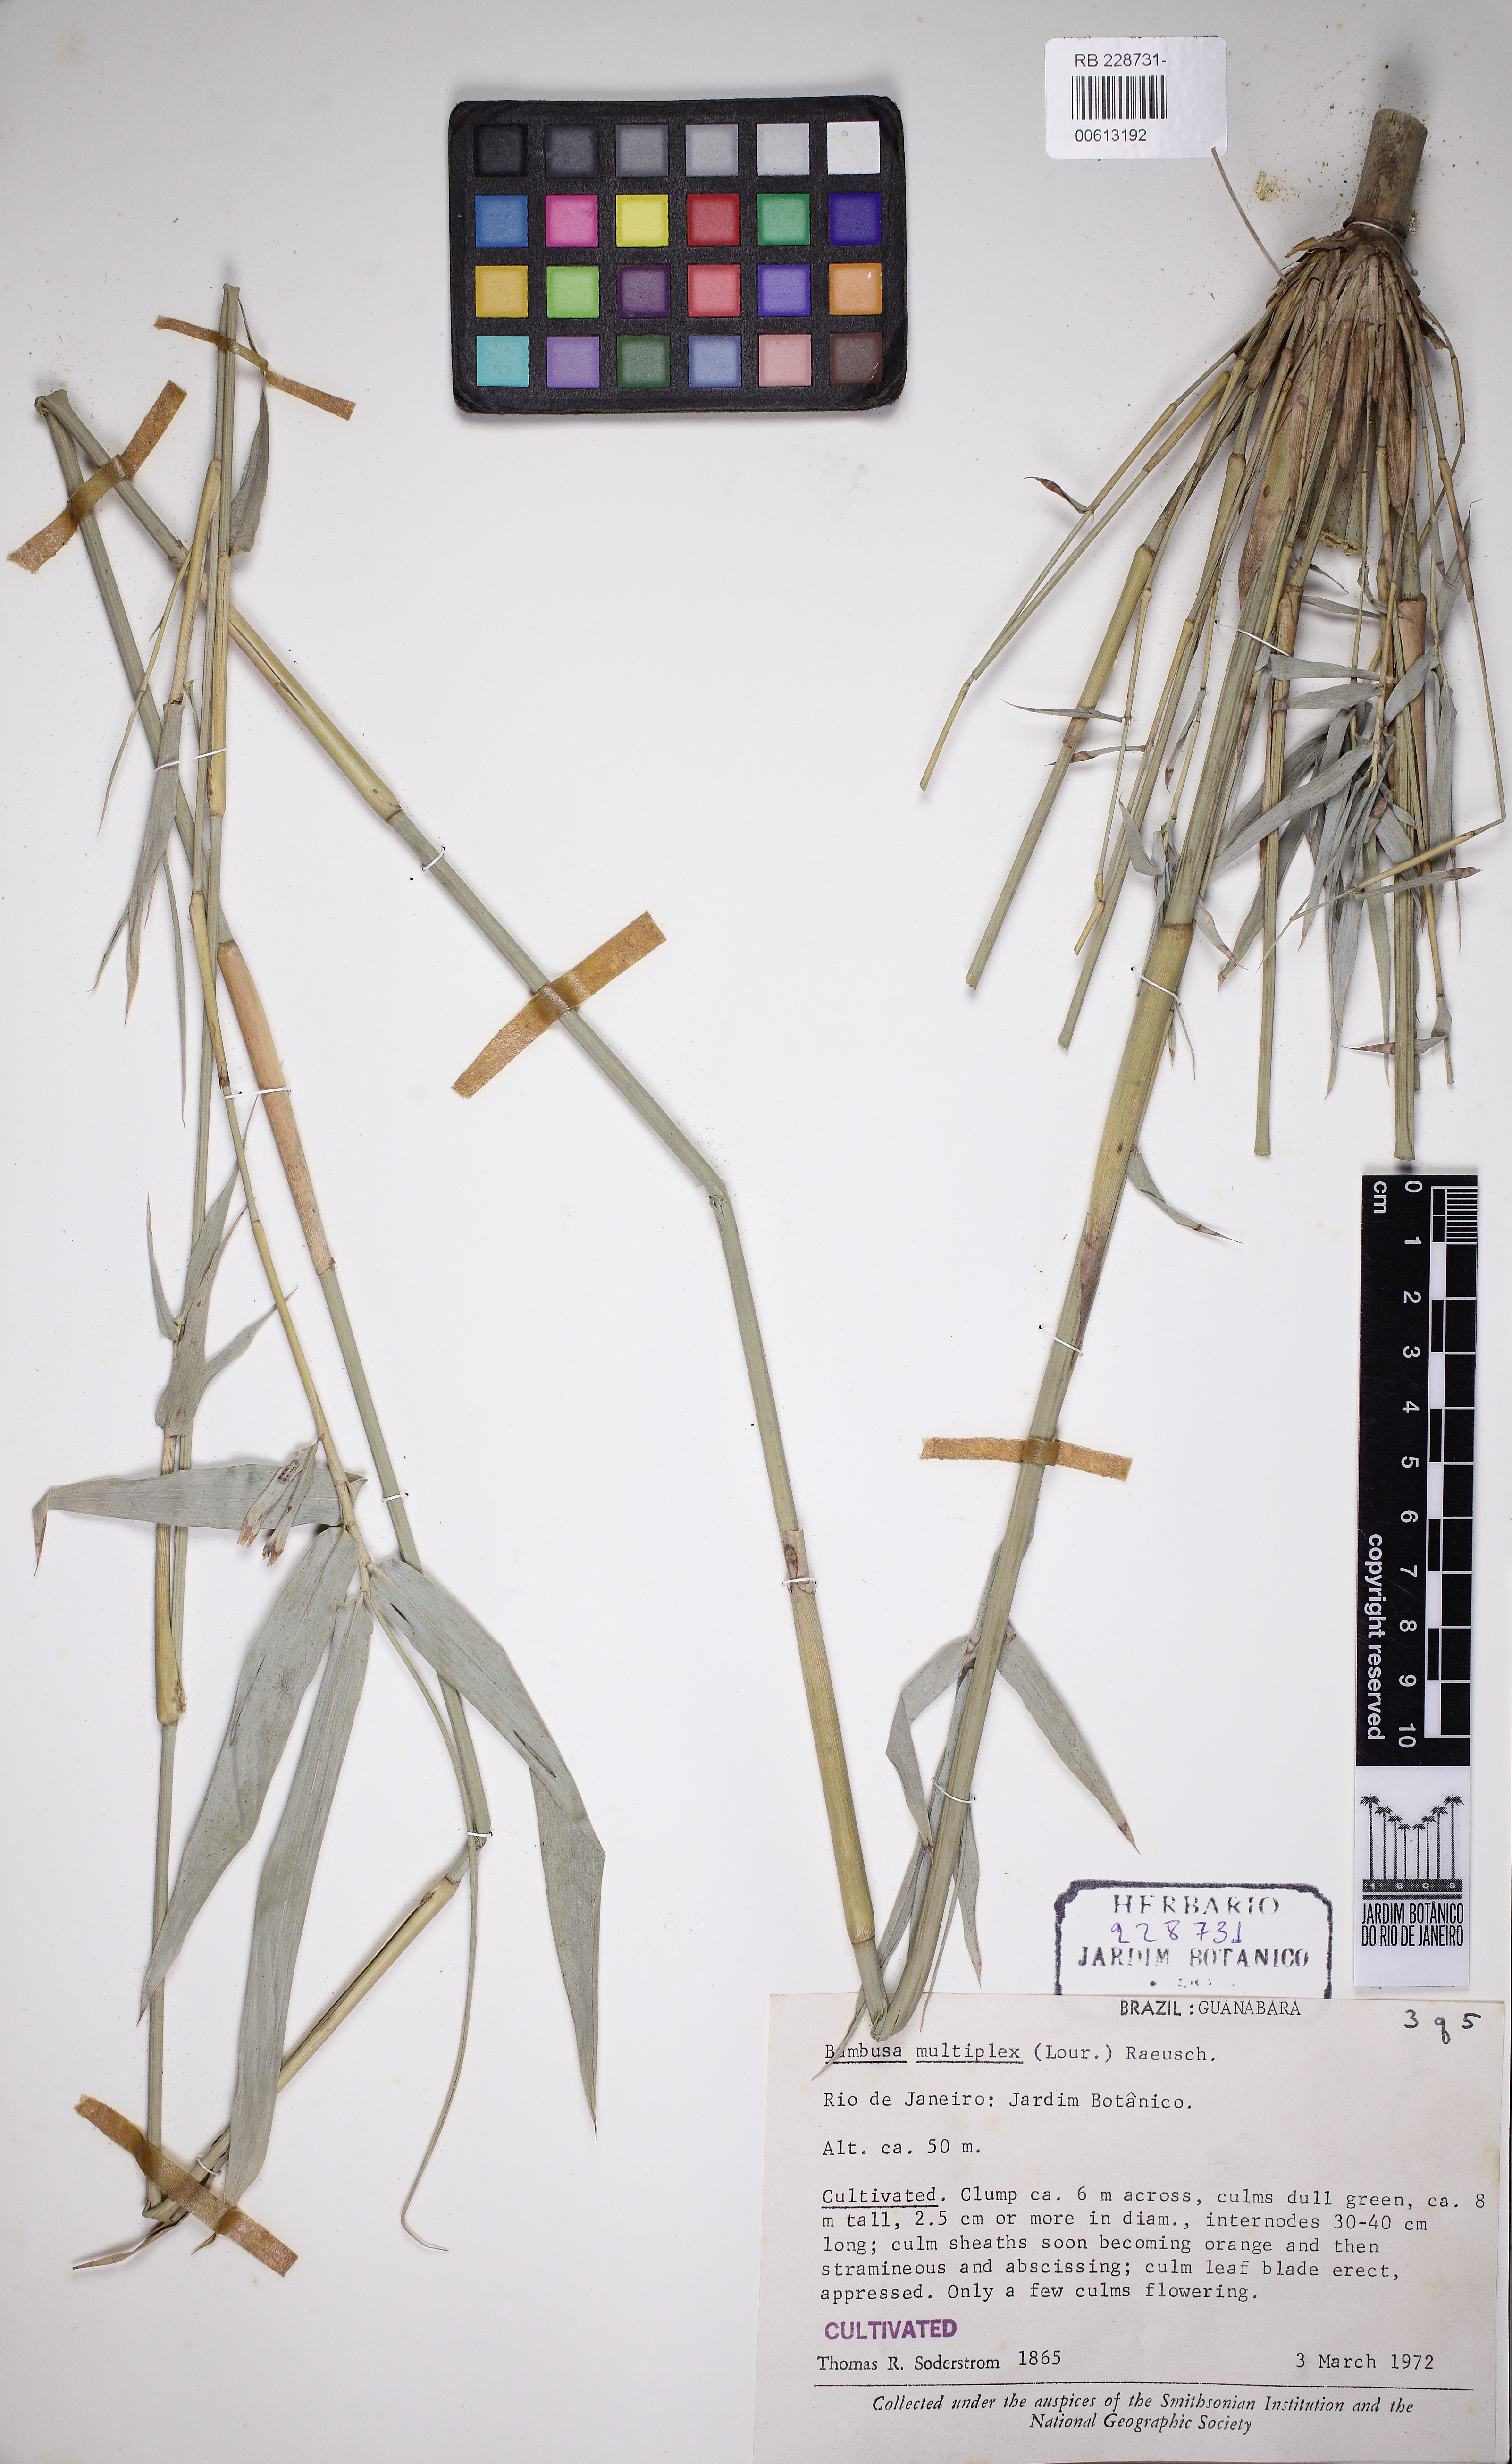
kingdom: Plantae
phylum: Tracheophyta
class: Liliopsida
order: Poales
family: Poaceae
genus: Bambusa
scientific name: Bambusa multiplex
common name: Hedge bamboo
